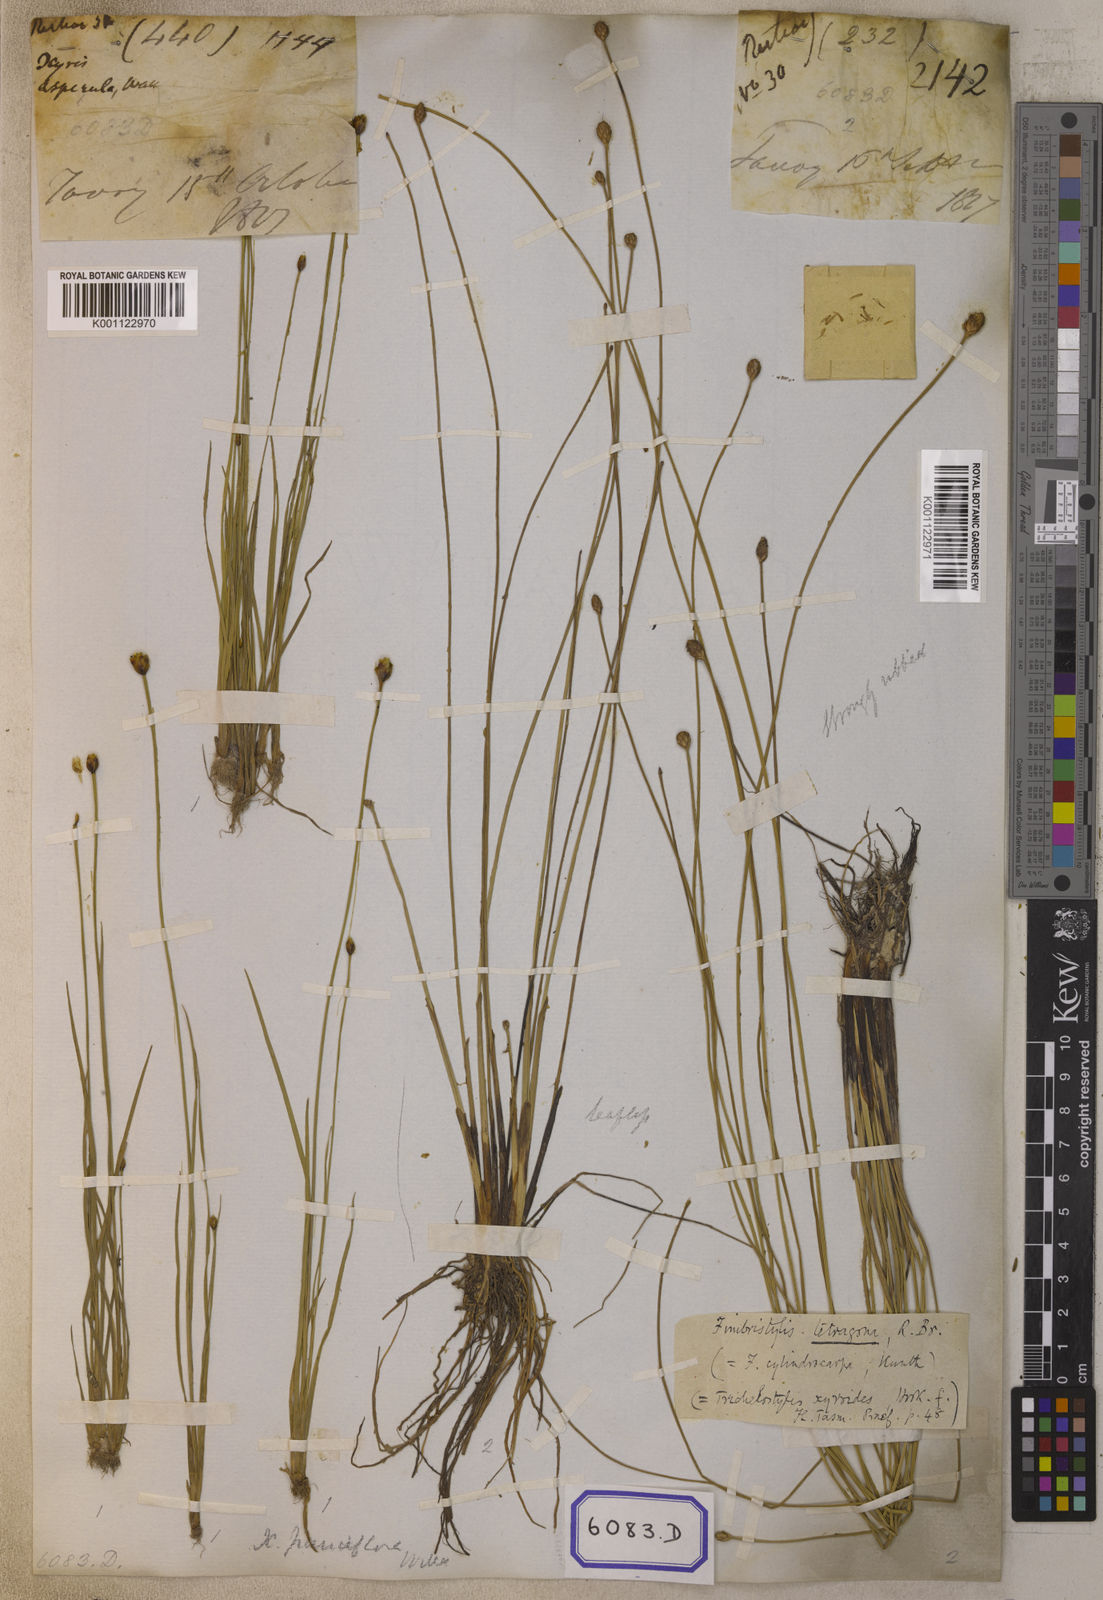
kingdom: Plantae
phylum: Tracheophyta
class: Liliopsida
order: Poales
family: Xyridaceae
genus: Xyris
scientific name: Xyris pauciflora
